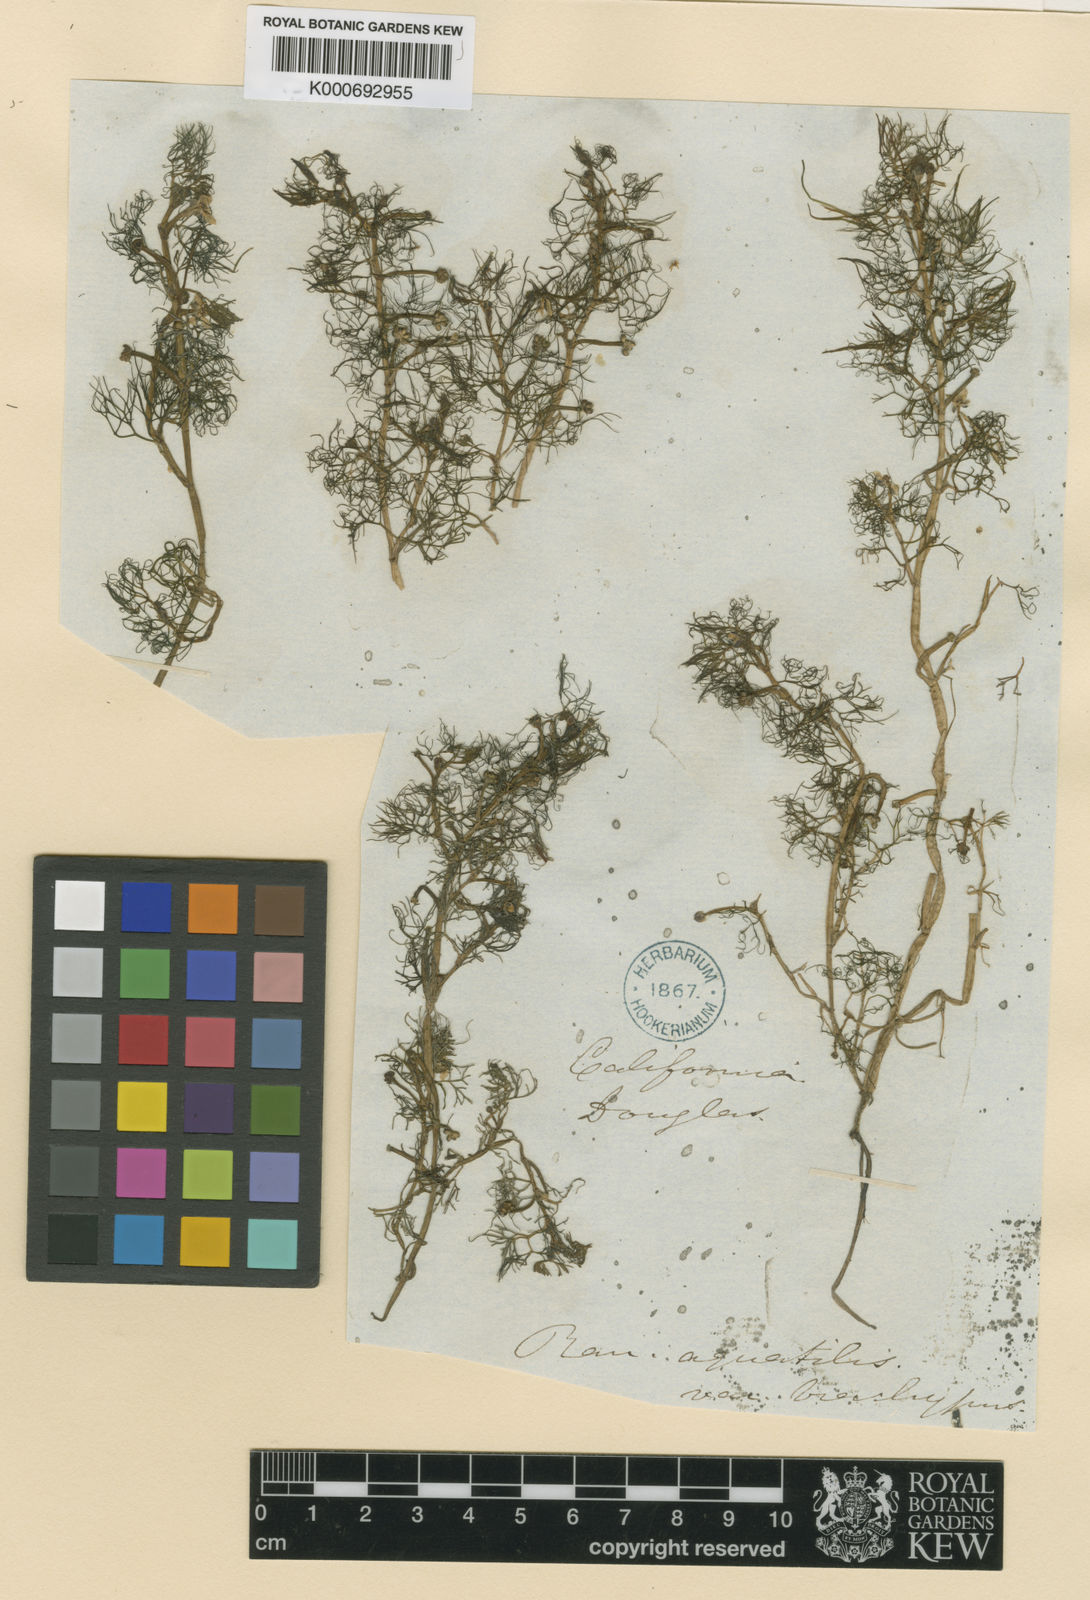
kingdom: Plantae
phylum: Tracheophyta
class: Magnoliopsida
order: Ranunculales
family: Ranunculaceae
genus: Ranunculus
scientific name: Ranunculus aquatilis
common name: Common water-crowfoot
